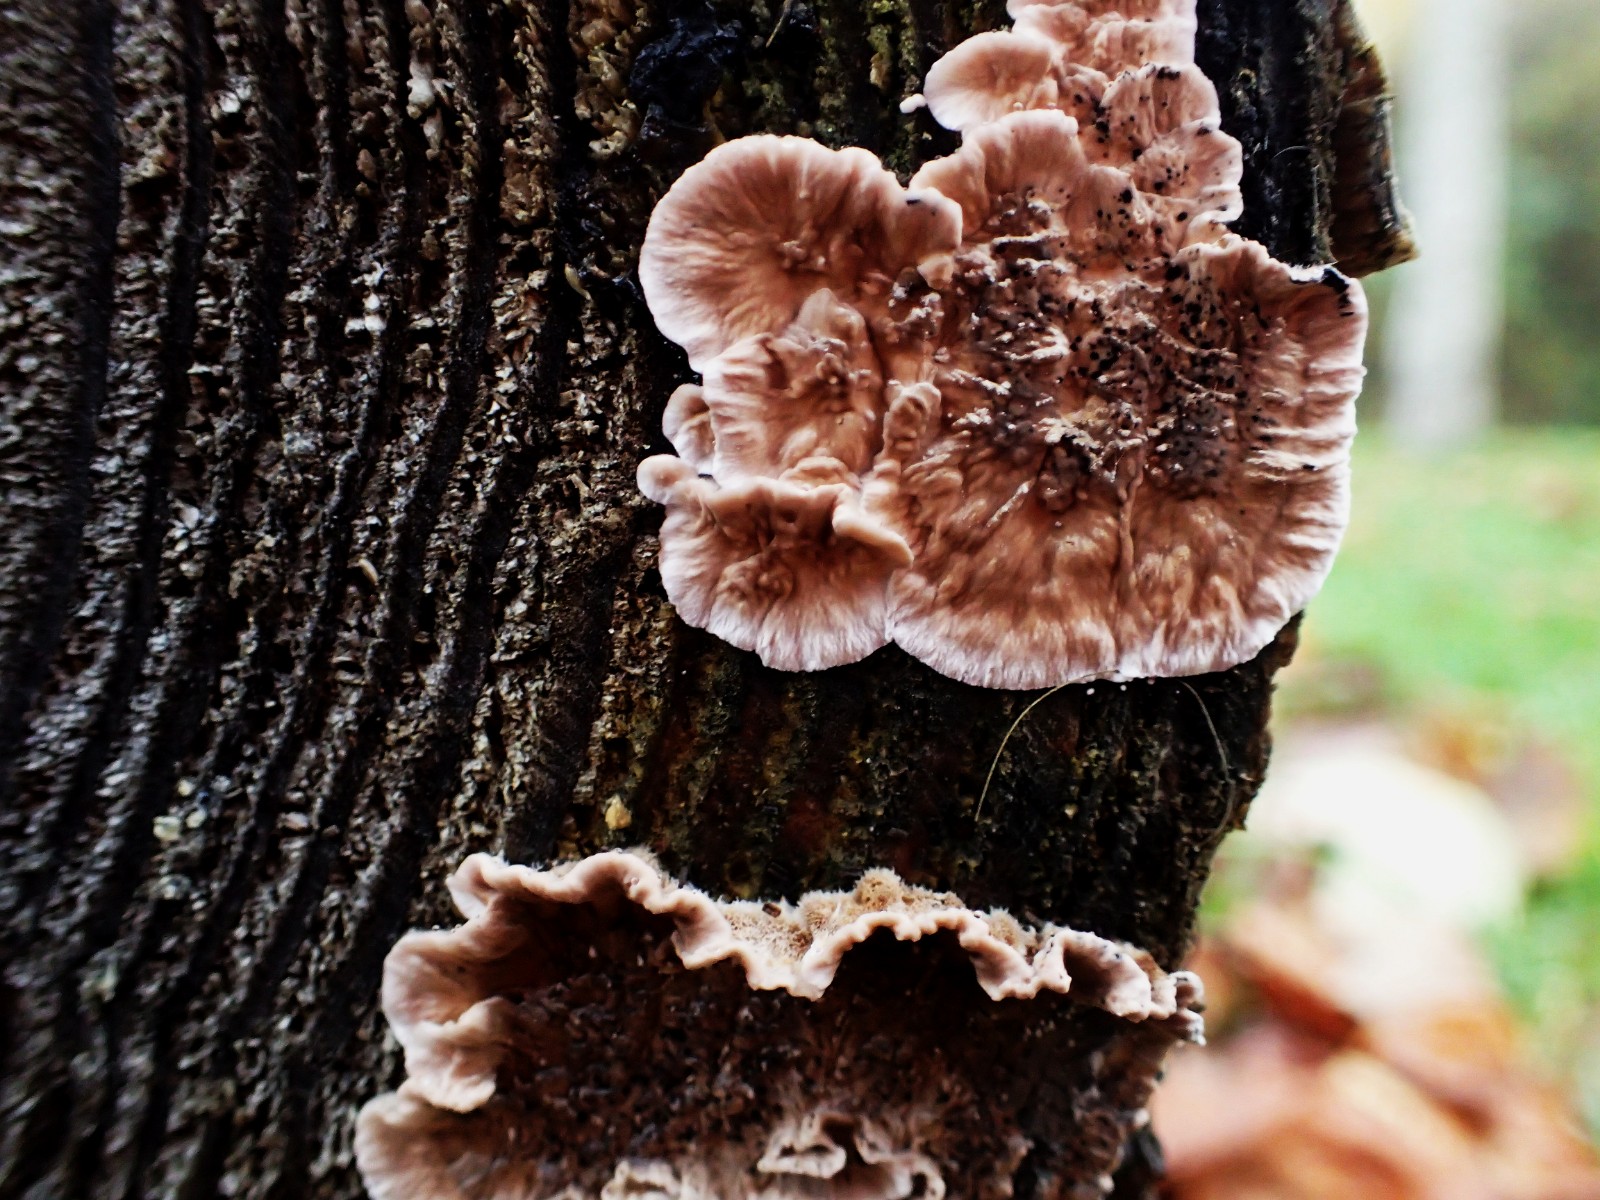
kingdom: Fungi
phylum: Basidiomycota
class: Agaricomycetes
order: Russulales
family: Echinodontiaceae
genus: Amylostereum
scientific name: Amylostereum chailletii
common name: gran-lædersvamp
